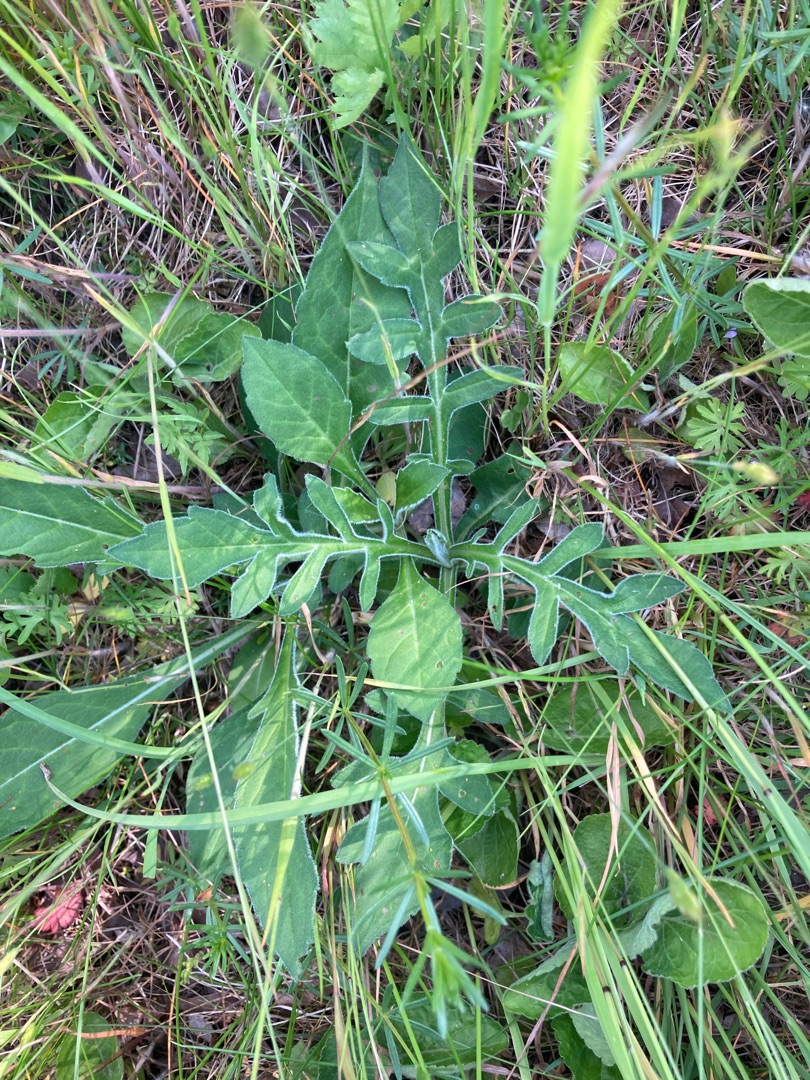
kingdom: Plantae
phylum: Tracheophyta
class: Magnoliopsida
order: Dipsacales
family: Caprifoliaceae
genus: Knautia
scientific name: Knautia arvensis
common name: Blåhat
